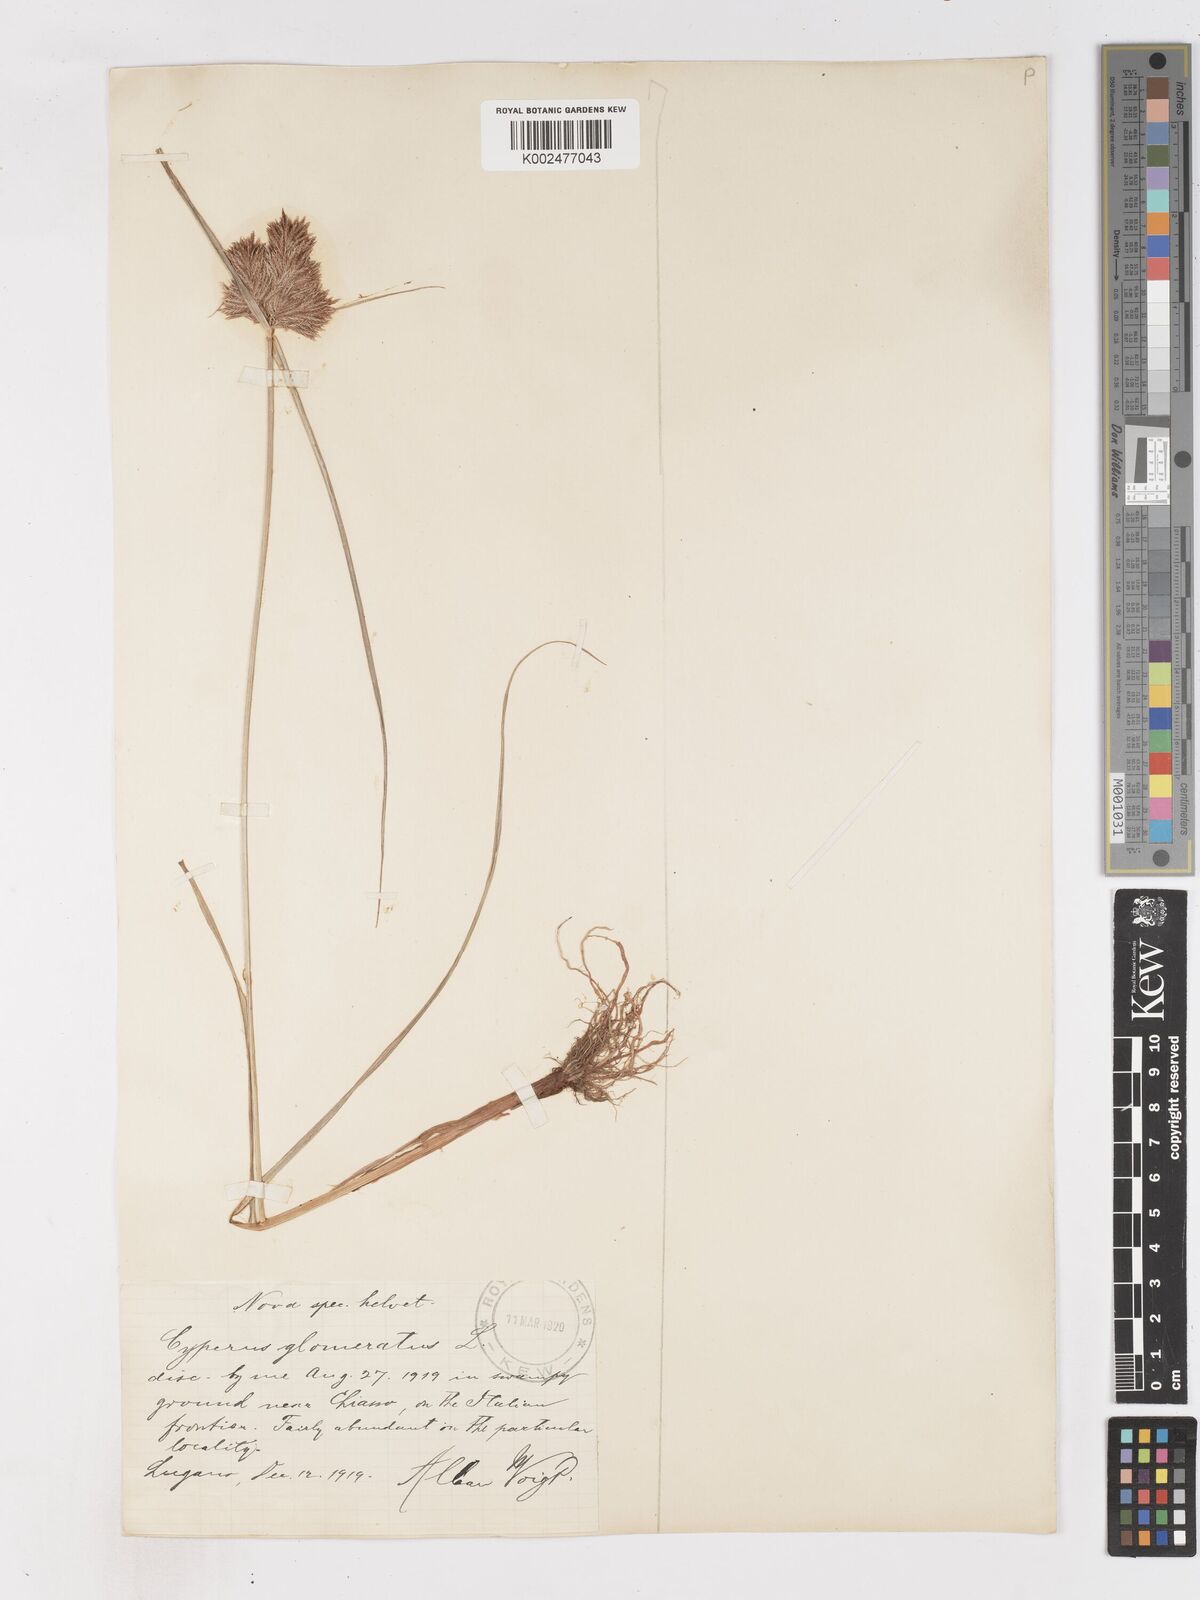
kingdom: Plantae
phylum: Tracheophyta
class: Liliopsida
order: Poales
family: Cyperaceae
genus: Cyperus
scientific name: Cyperus glomeratus
